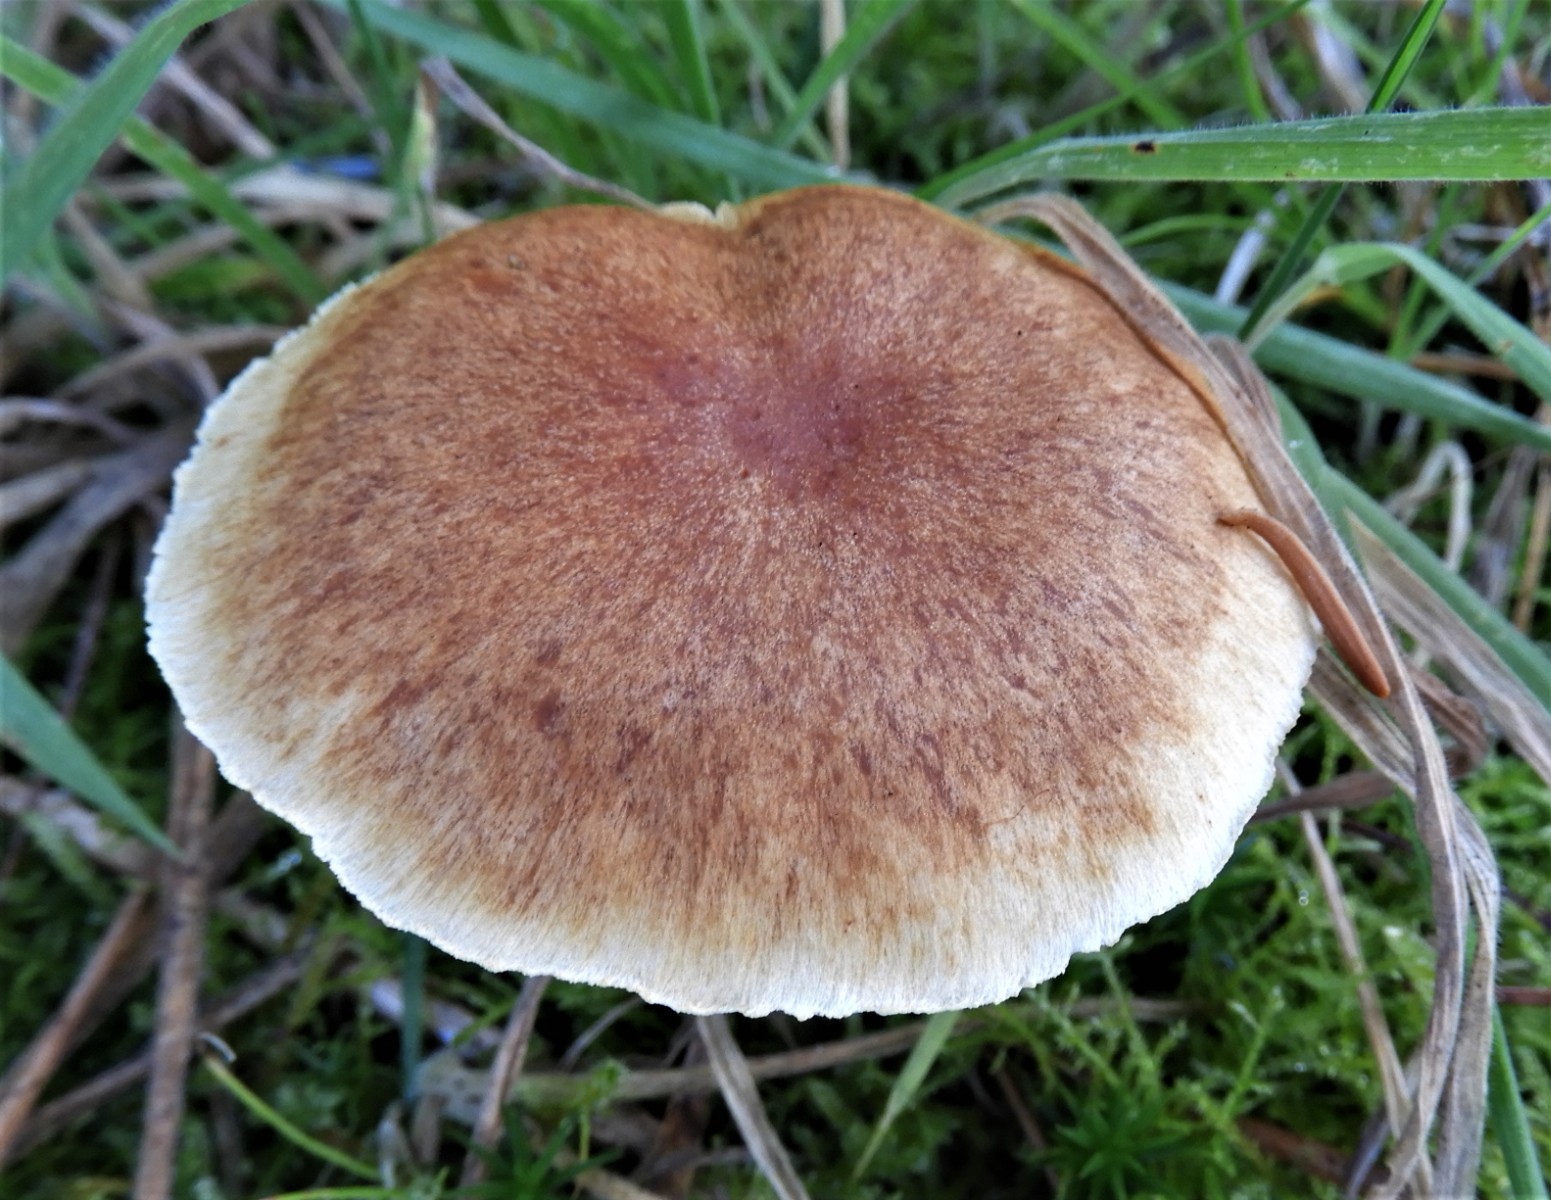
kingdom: Fungi
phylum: Basidiomycota
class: Agaricomycetes
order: Agaricales
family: Hymenogastraceae
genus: Gymnopilus
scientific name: Gymnopilus penetrans
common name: plettet flammehat
